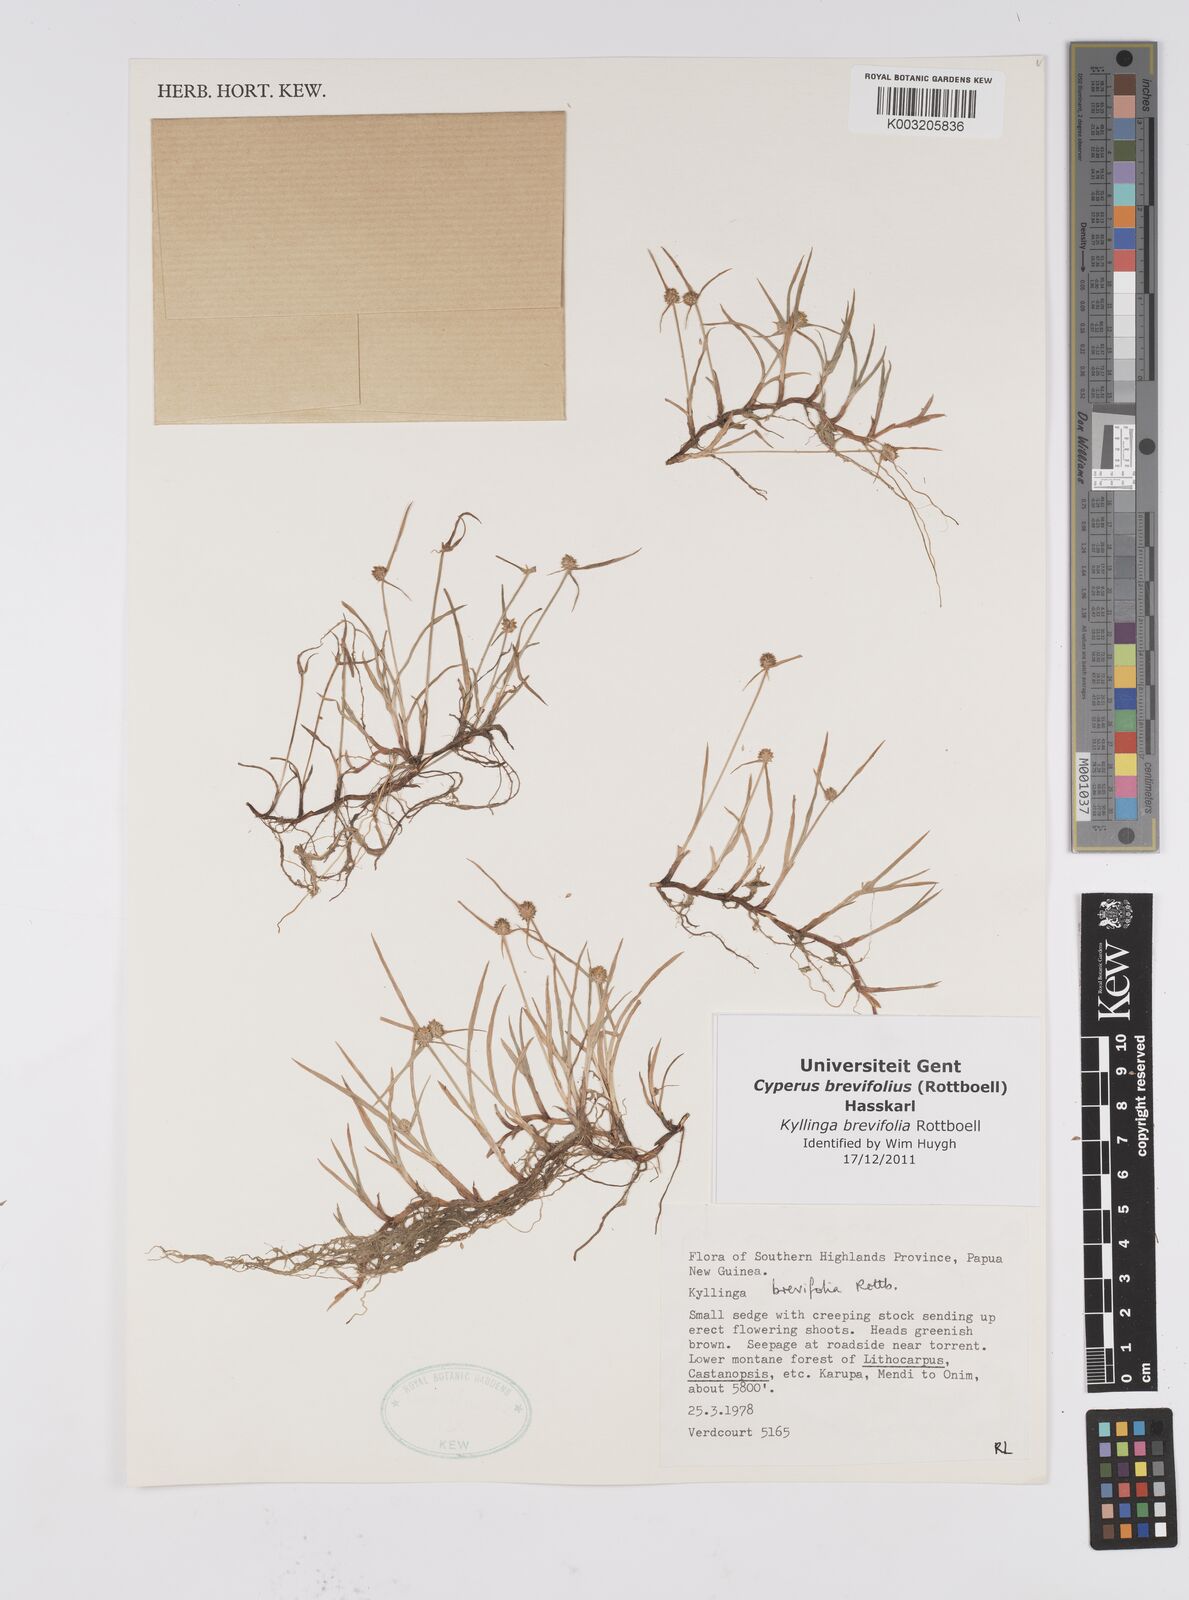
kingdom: Plantae
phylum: Tracheophyta
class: Liliopsida
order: Poales
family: Cyperaceae
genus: Cyperus
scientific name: Cyperus brevifolius
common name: Globe kyllinga
